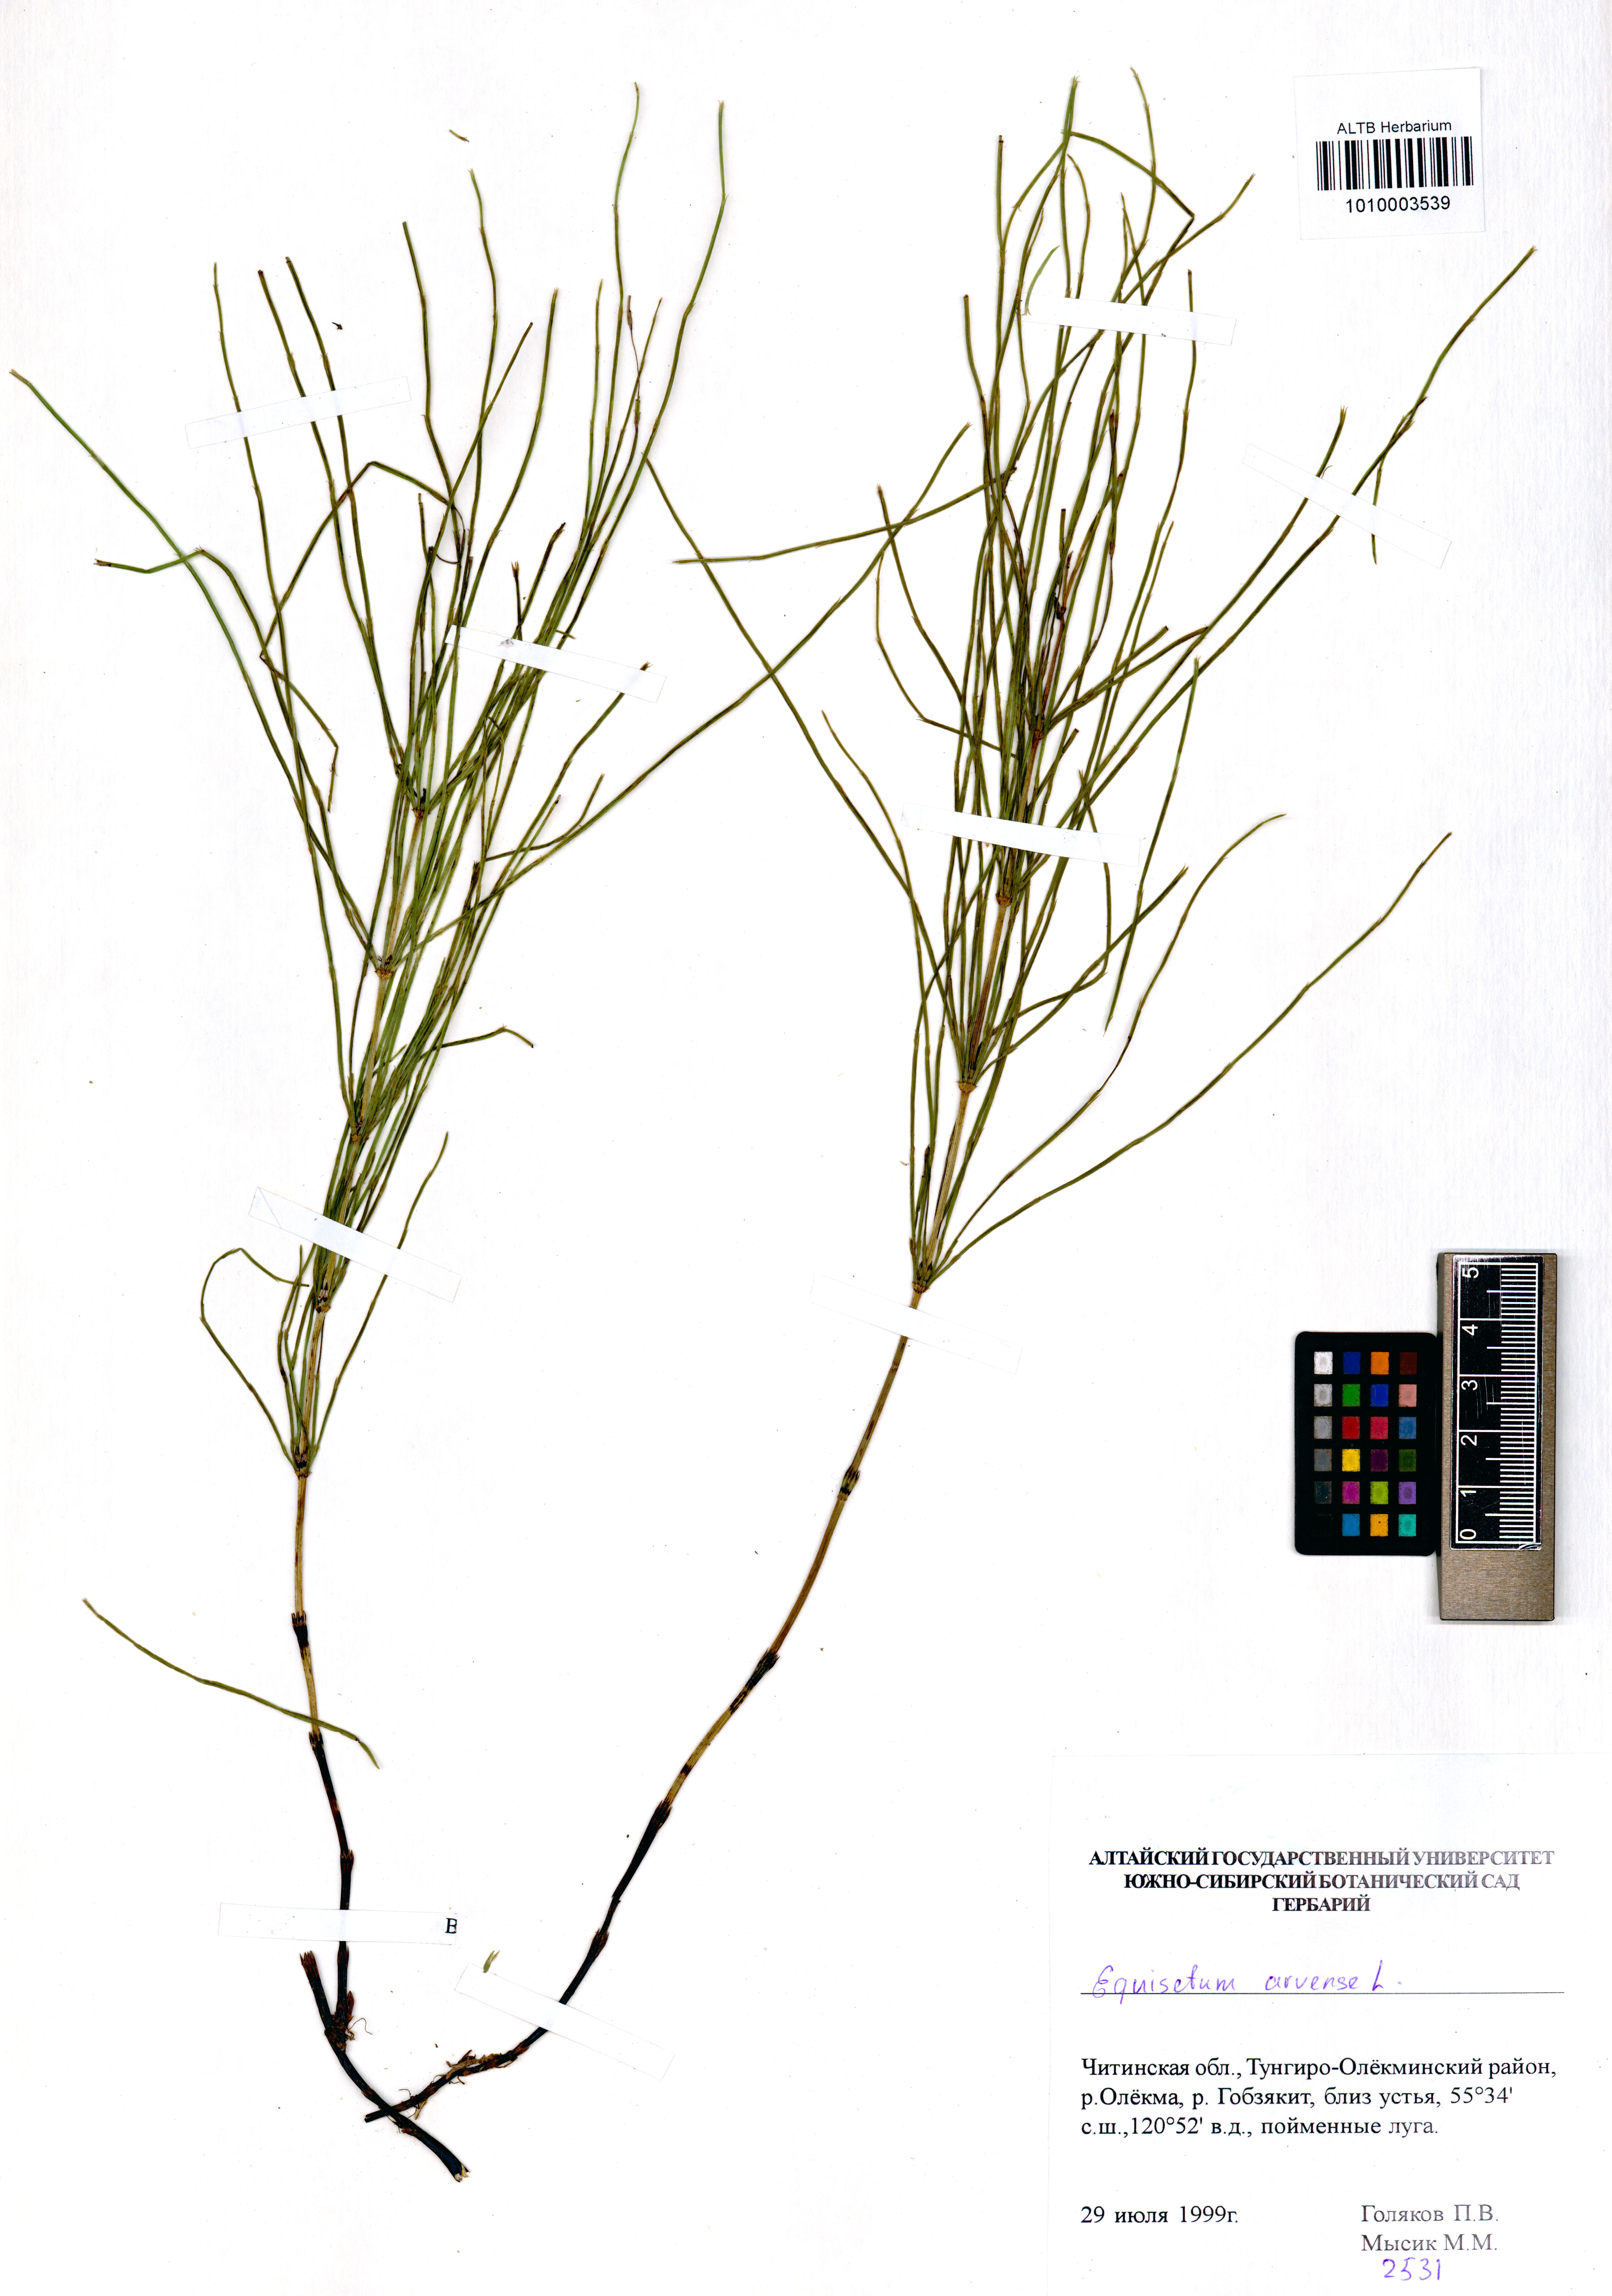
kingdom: Plantae
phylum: Tracheophyta
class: Polypodiopsida
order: Equisetales
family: Equisetaceae
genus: Equisetum
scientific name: Equisetum arvense
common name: Field horsetail
